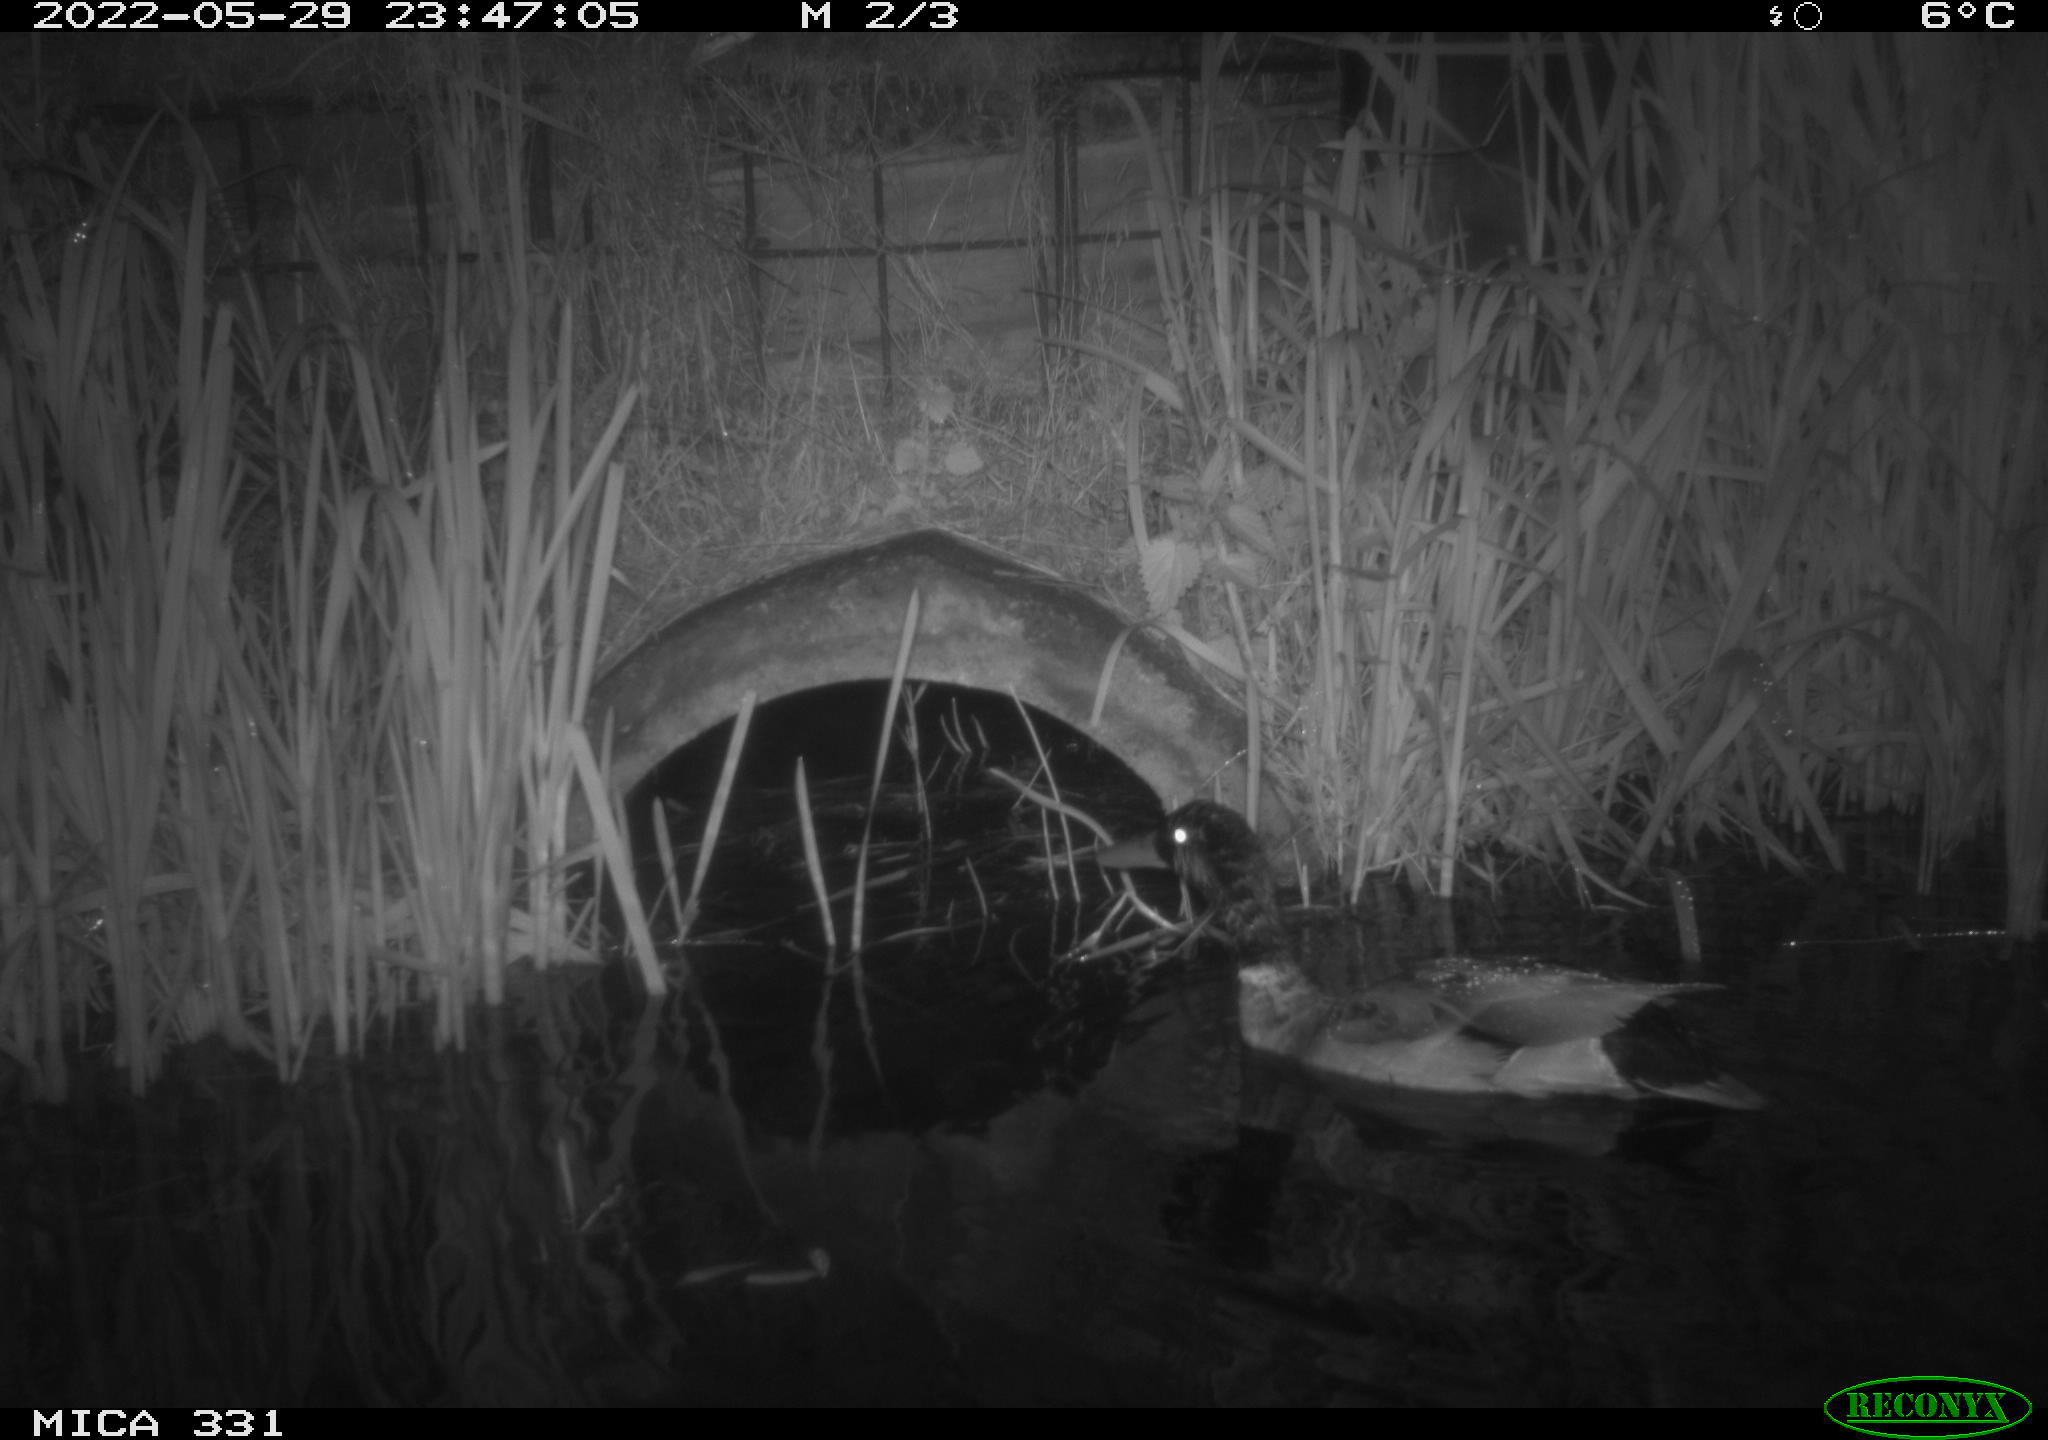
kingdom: Animalia
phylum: Chordata
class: Aves
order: Anseriformes
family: Anatidae
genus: Anas
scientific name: Anas platyrhynchos
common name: Mallard
